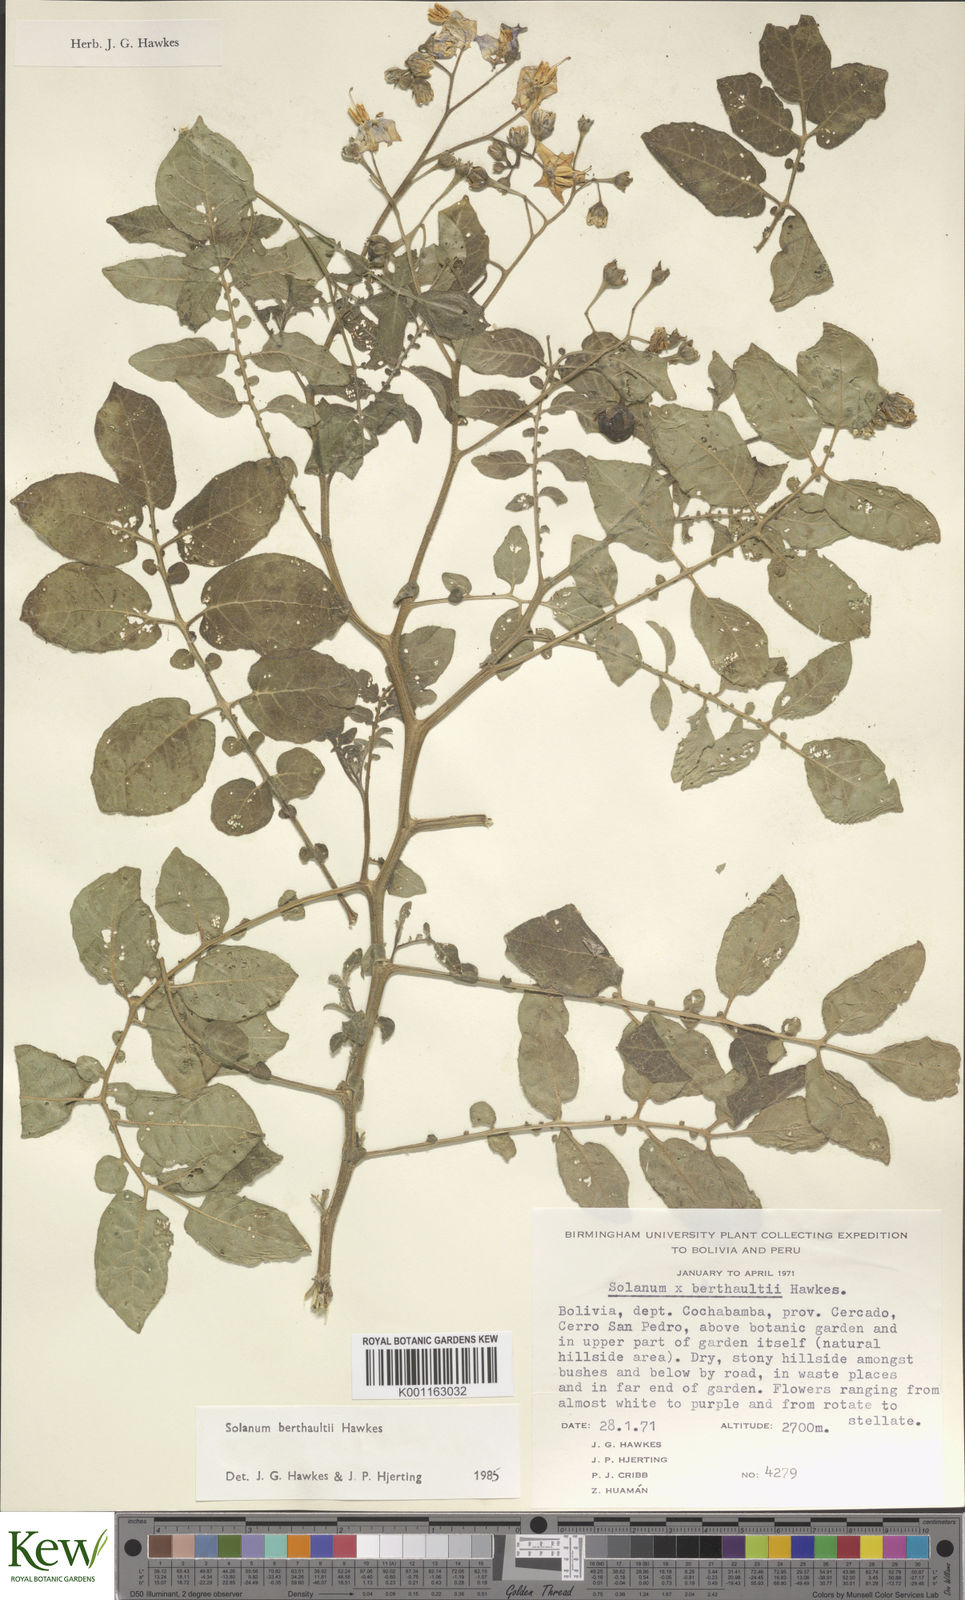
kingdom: Plantae
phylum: Tracheophyta
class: Magnoliopsida
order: Solanales
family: Solanaceae
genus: Solanum
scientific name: Solanum berthaultii
